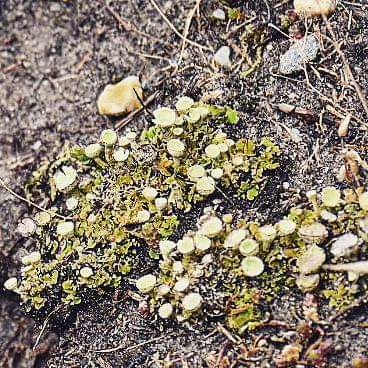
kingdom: Fungi
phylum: Ascomycota
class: Lecanoromycetes
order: Lecanorales
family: Cladoniaceae
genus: Cladonia
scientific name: Cladonia humilis
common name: lav bægerlav
